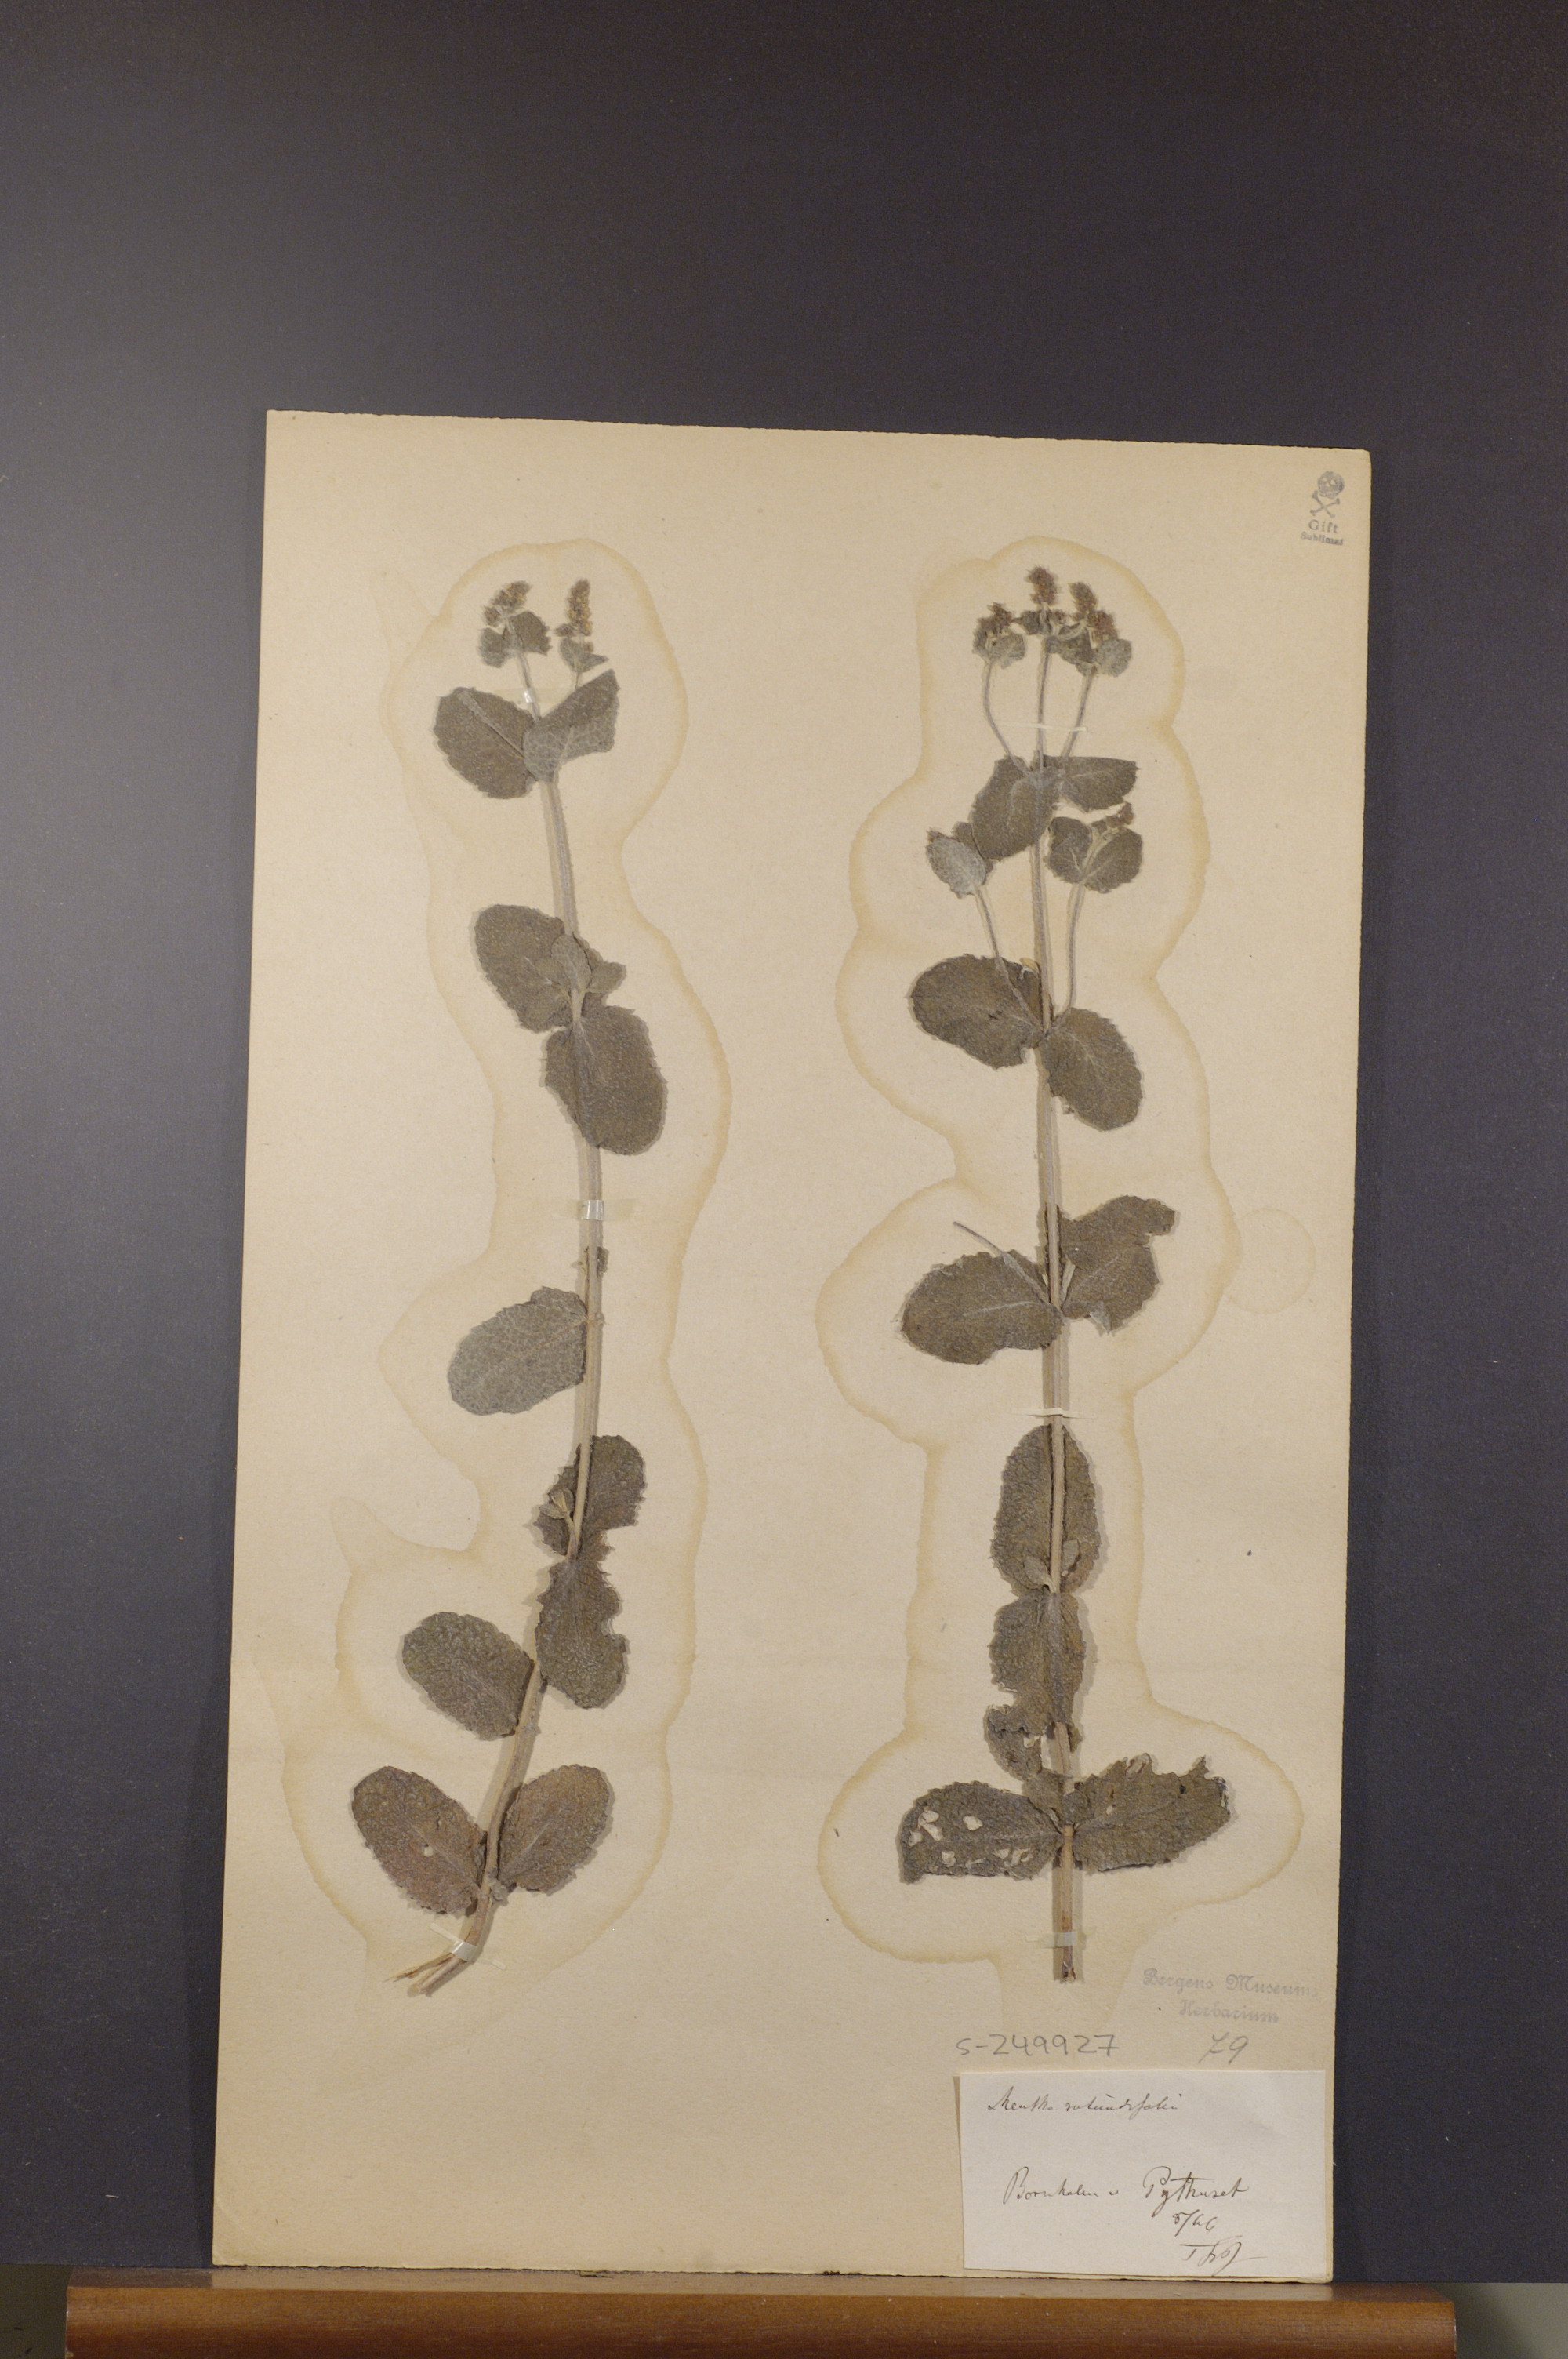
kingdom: Plantae
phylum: Tracheophyta
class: Magnoliopsida
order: Lamiales
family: Lamiaceae
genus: Mentha
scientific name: Mentha rotundifolia
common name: Bigleaf mint
